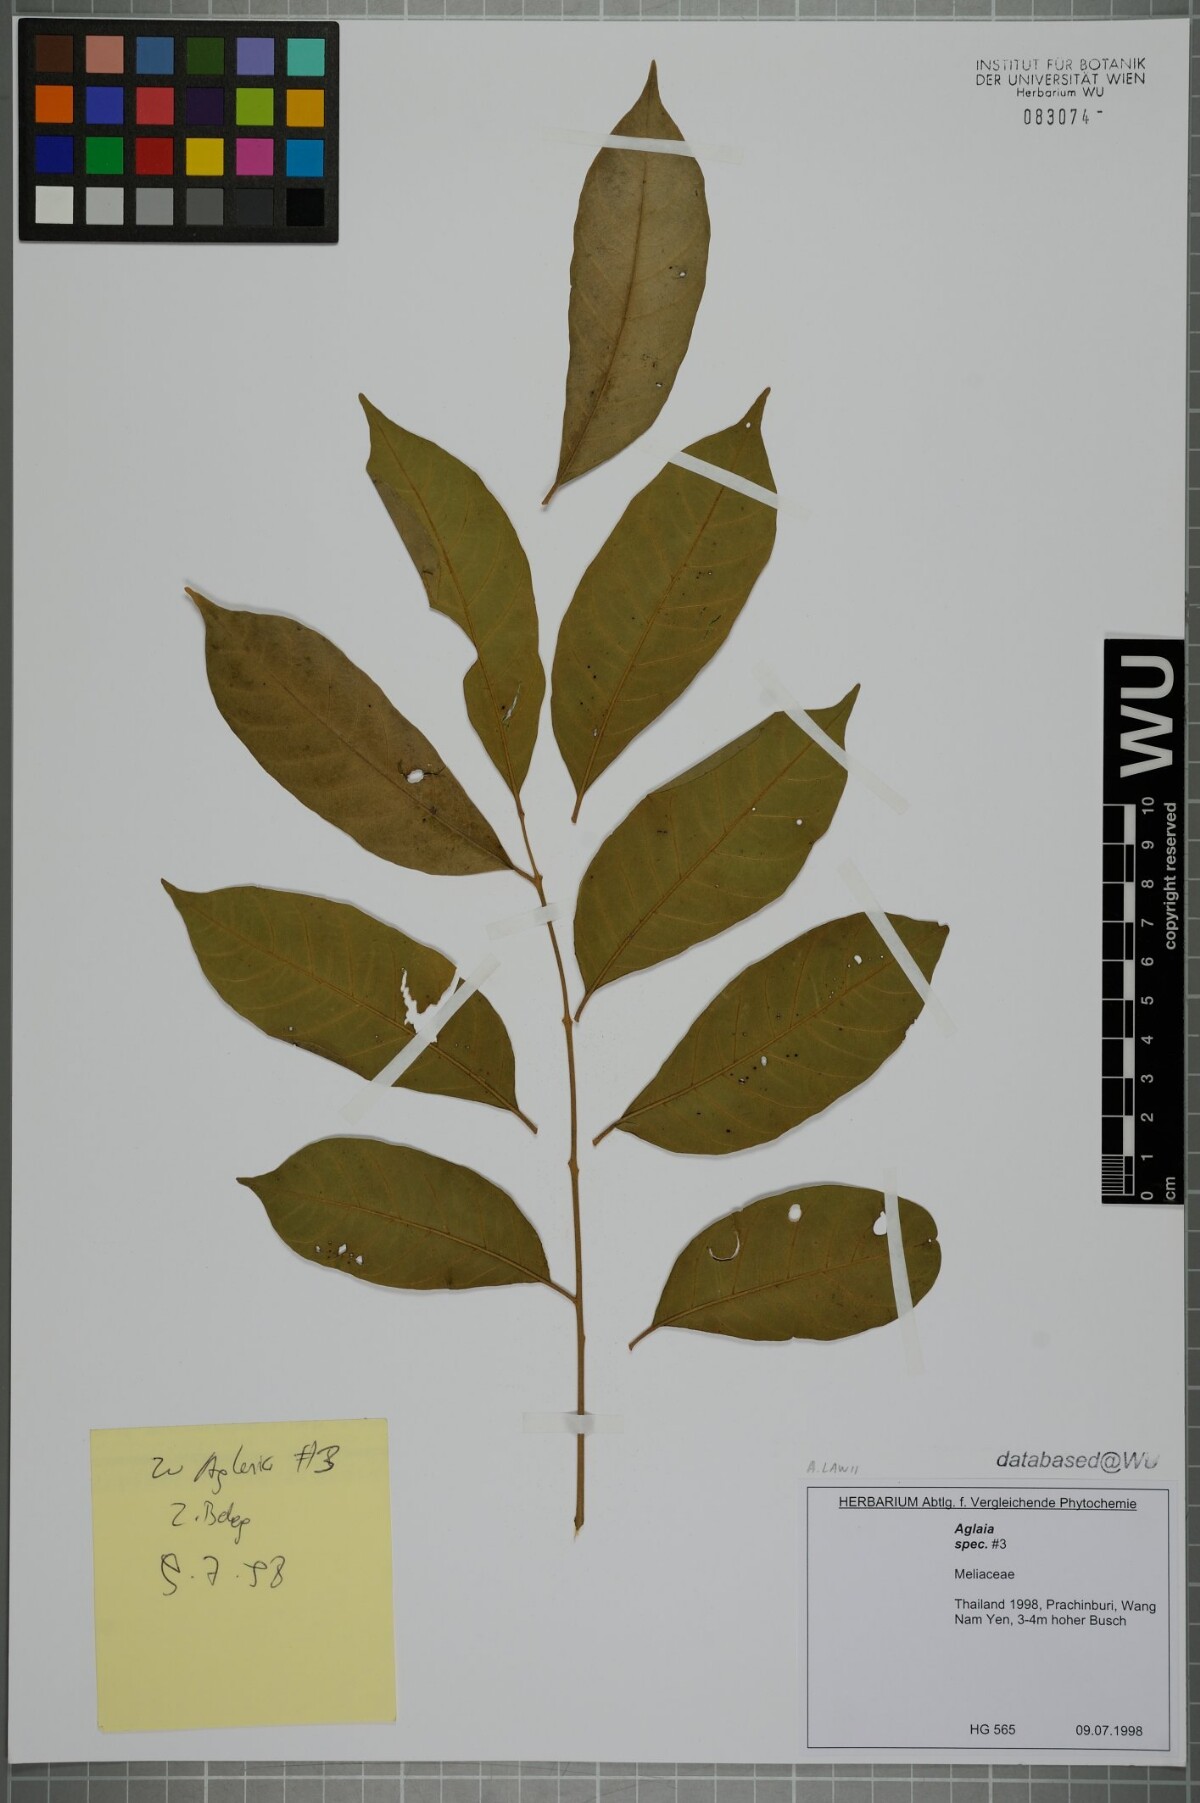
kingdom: Plantae
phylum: Tracheophyta
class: Magnoliopsida
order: Sapindales
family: Meliaceae
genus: Aglaia
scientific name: Aglaia lawii
